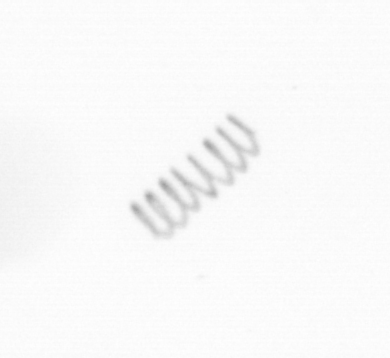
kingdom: Chromista
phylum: Ochrophyta
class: Bacillariophyceae
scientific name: Bacillariophyceae
